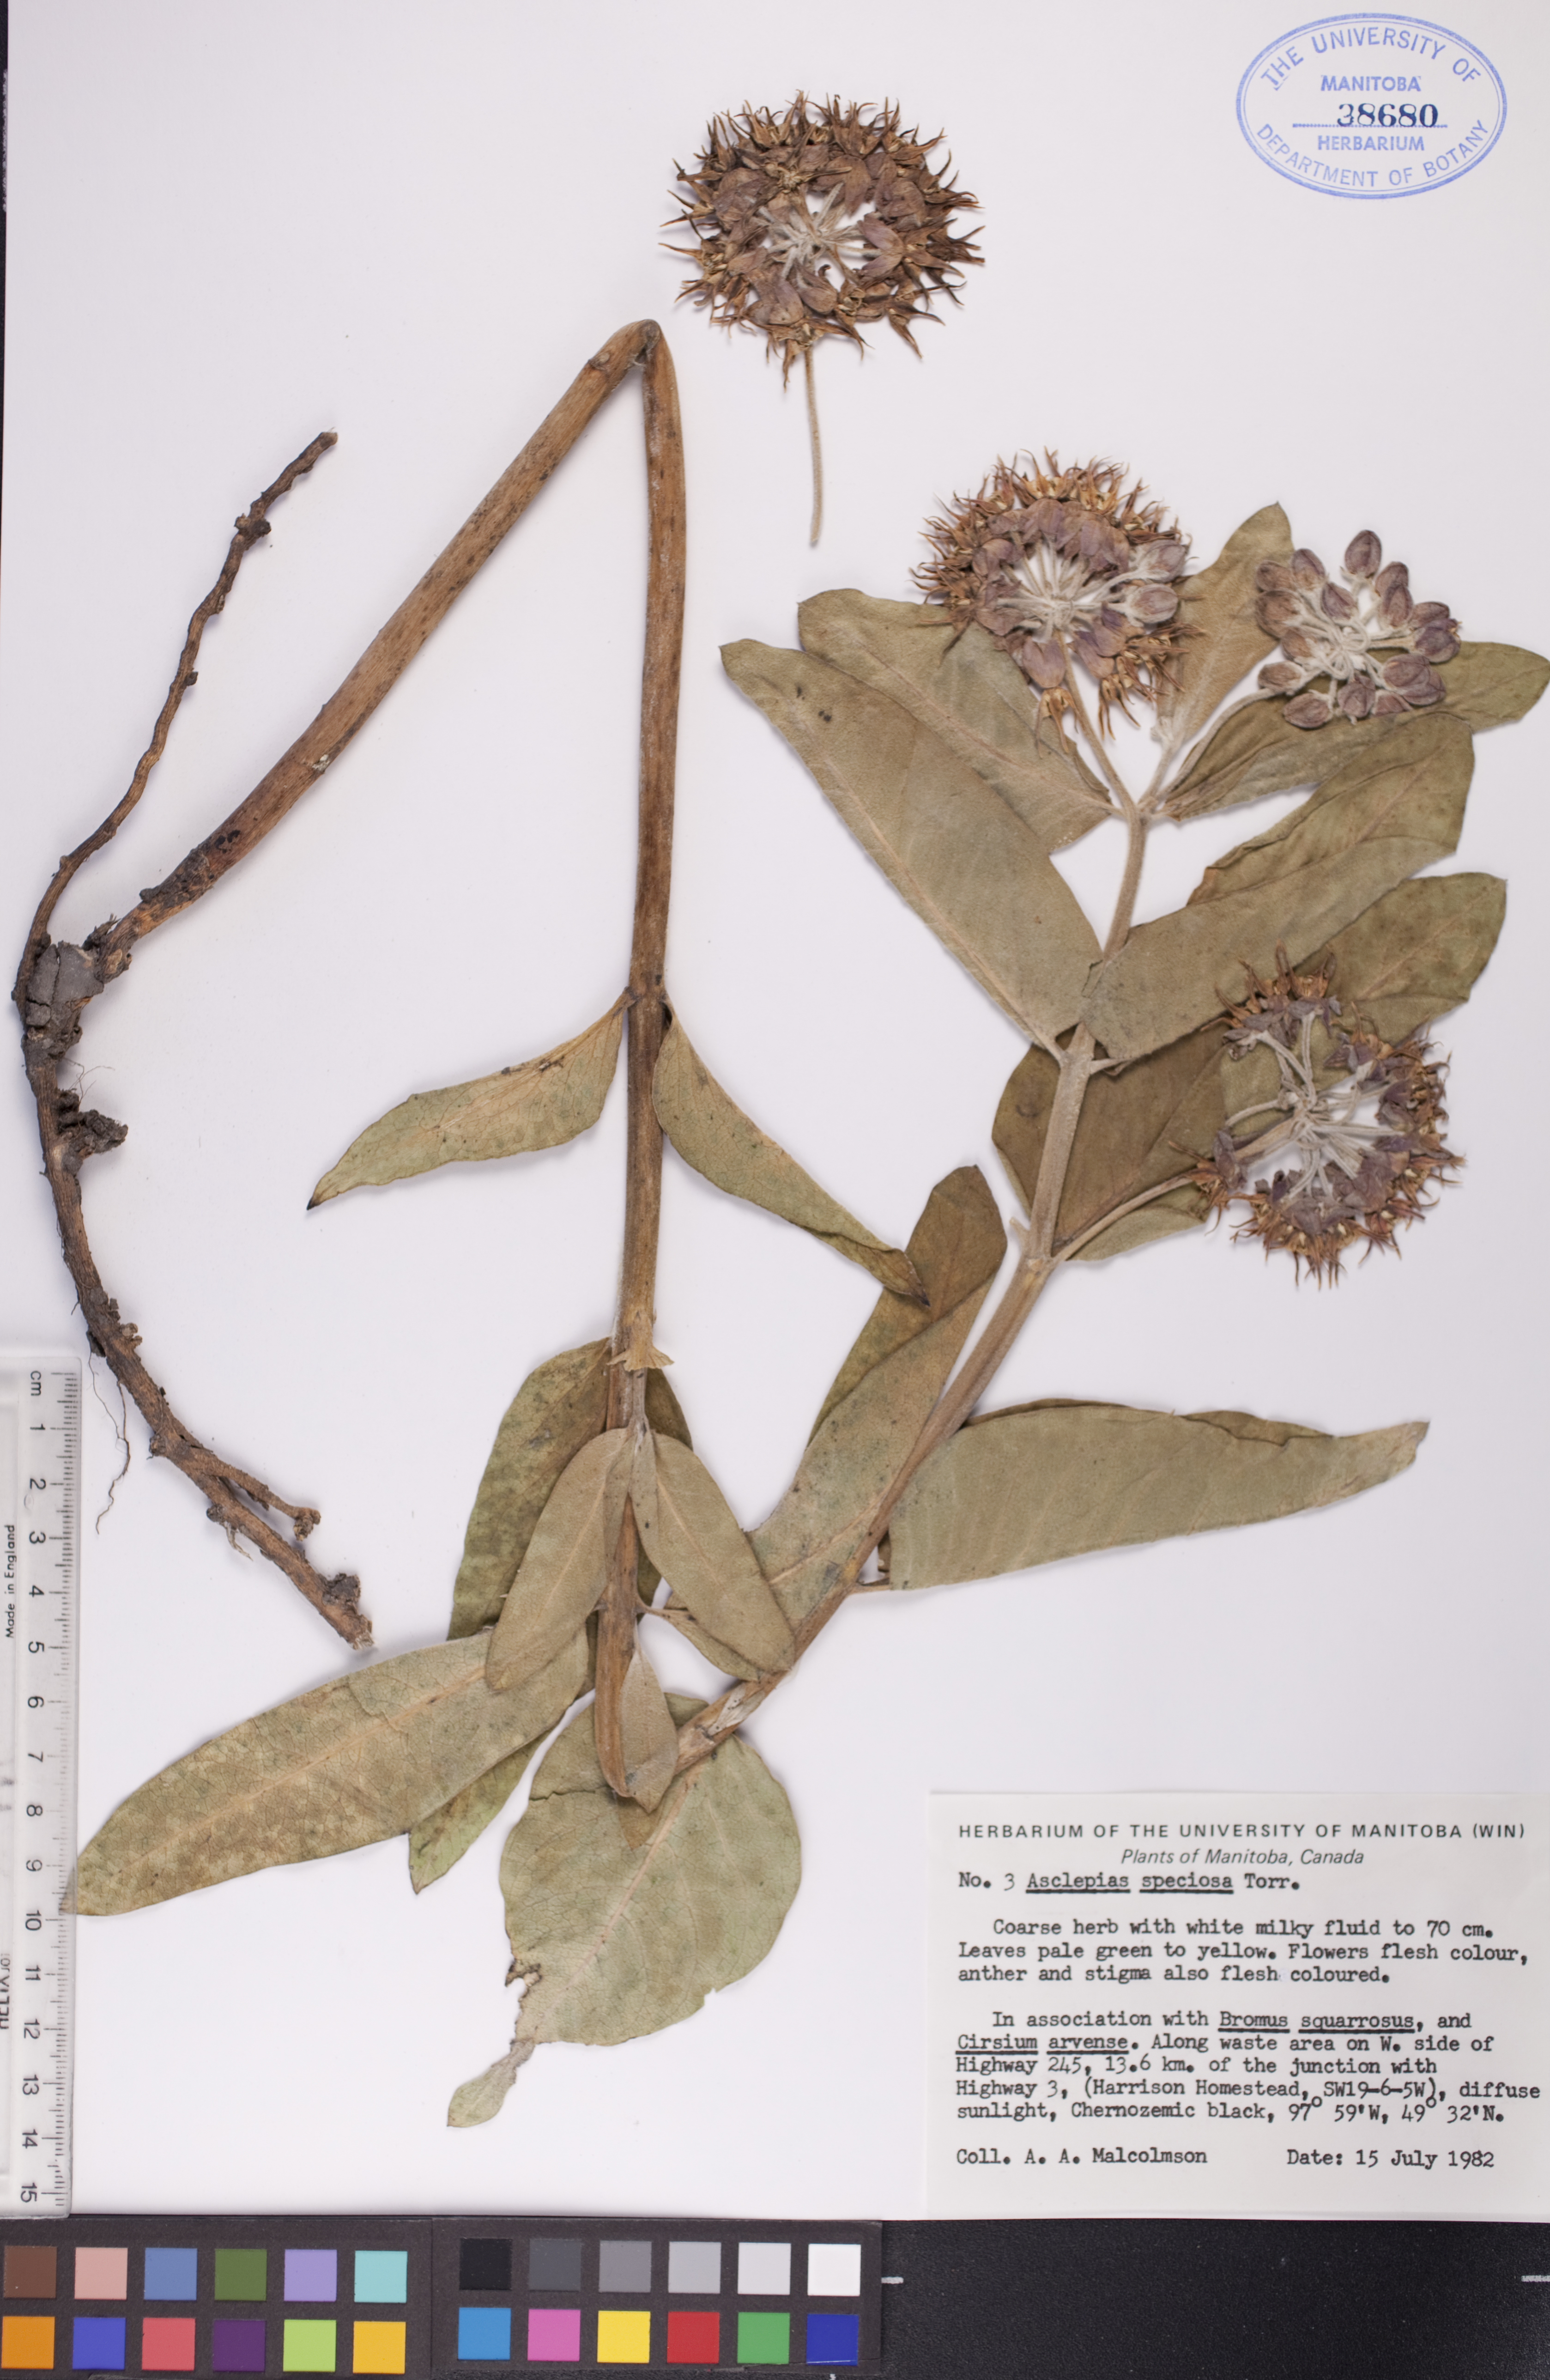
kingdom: Plantae
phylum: Tracheophyta
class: Magnoliopsida
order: Gentianales
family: Apocynaceae
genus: Asclepias
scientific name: Asclepias speciosa
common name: Showy milkweed
